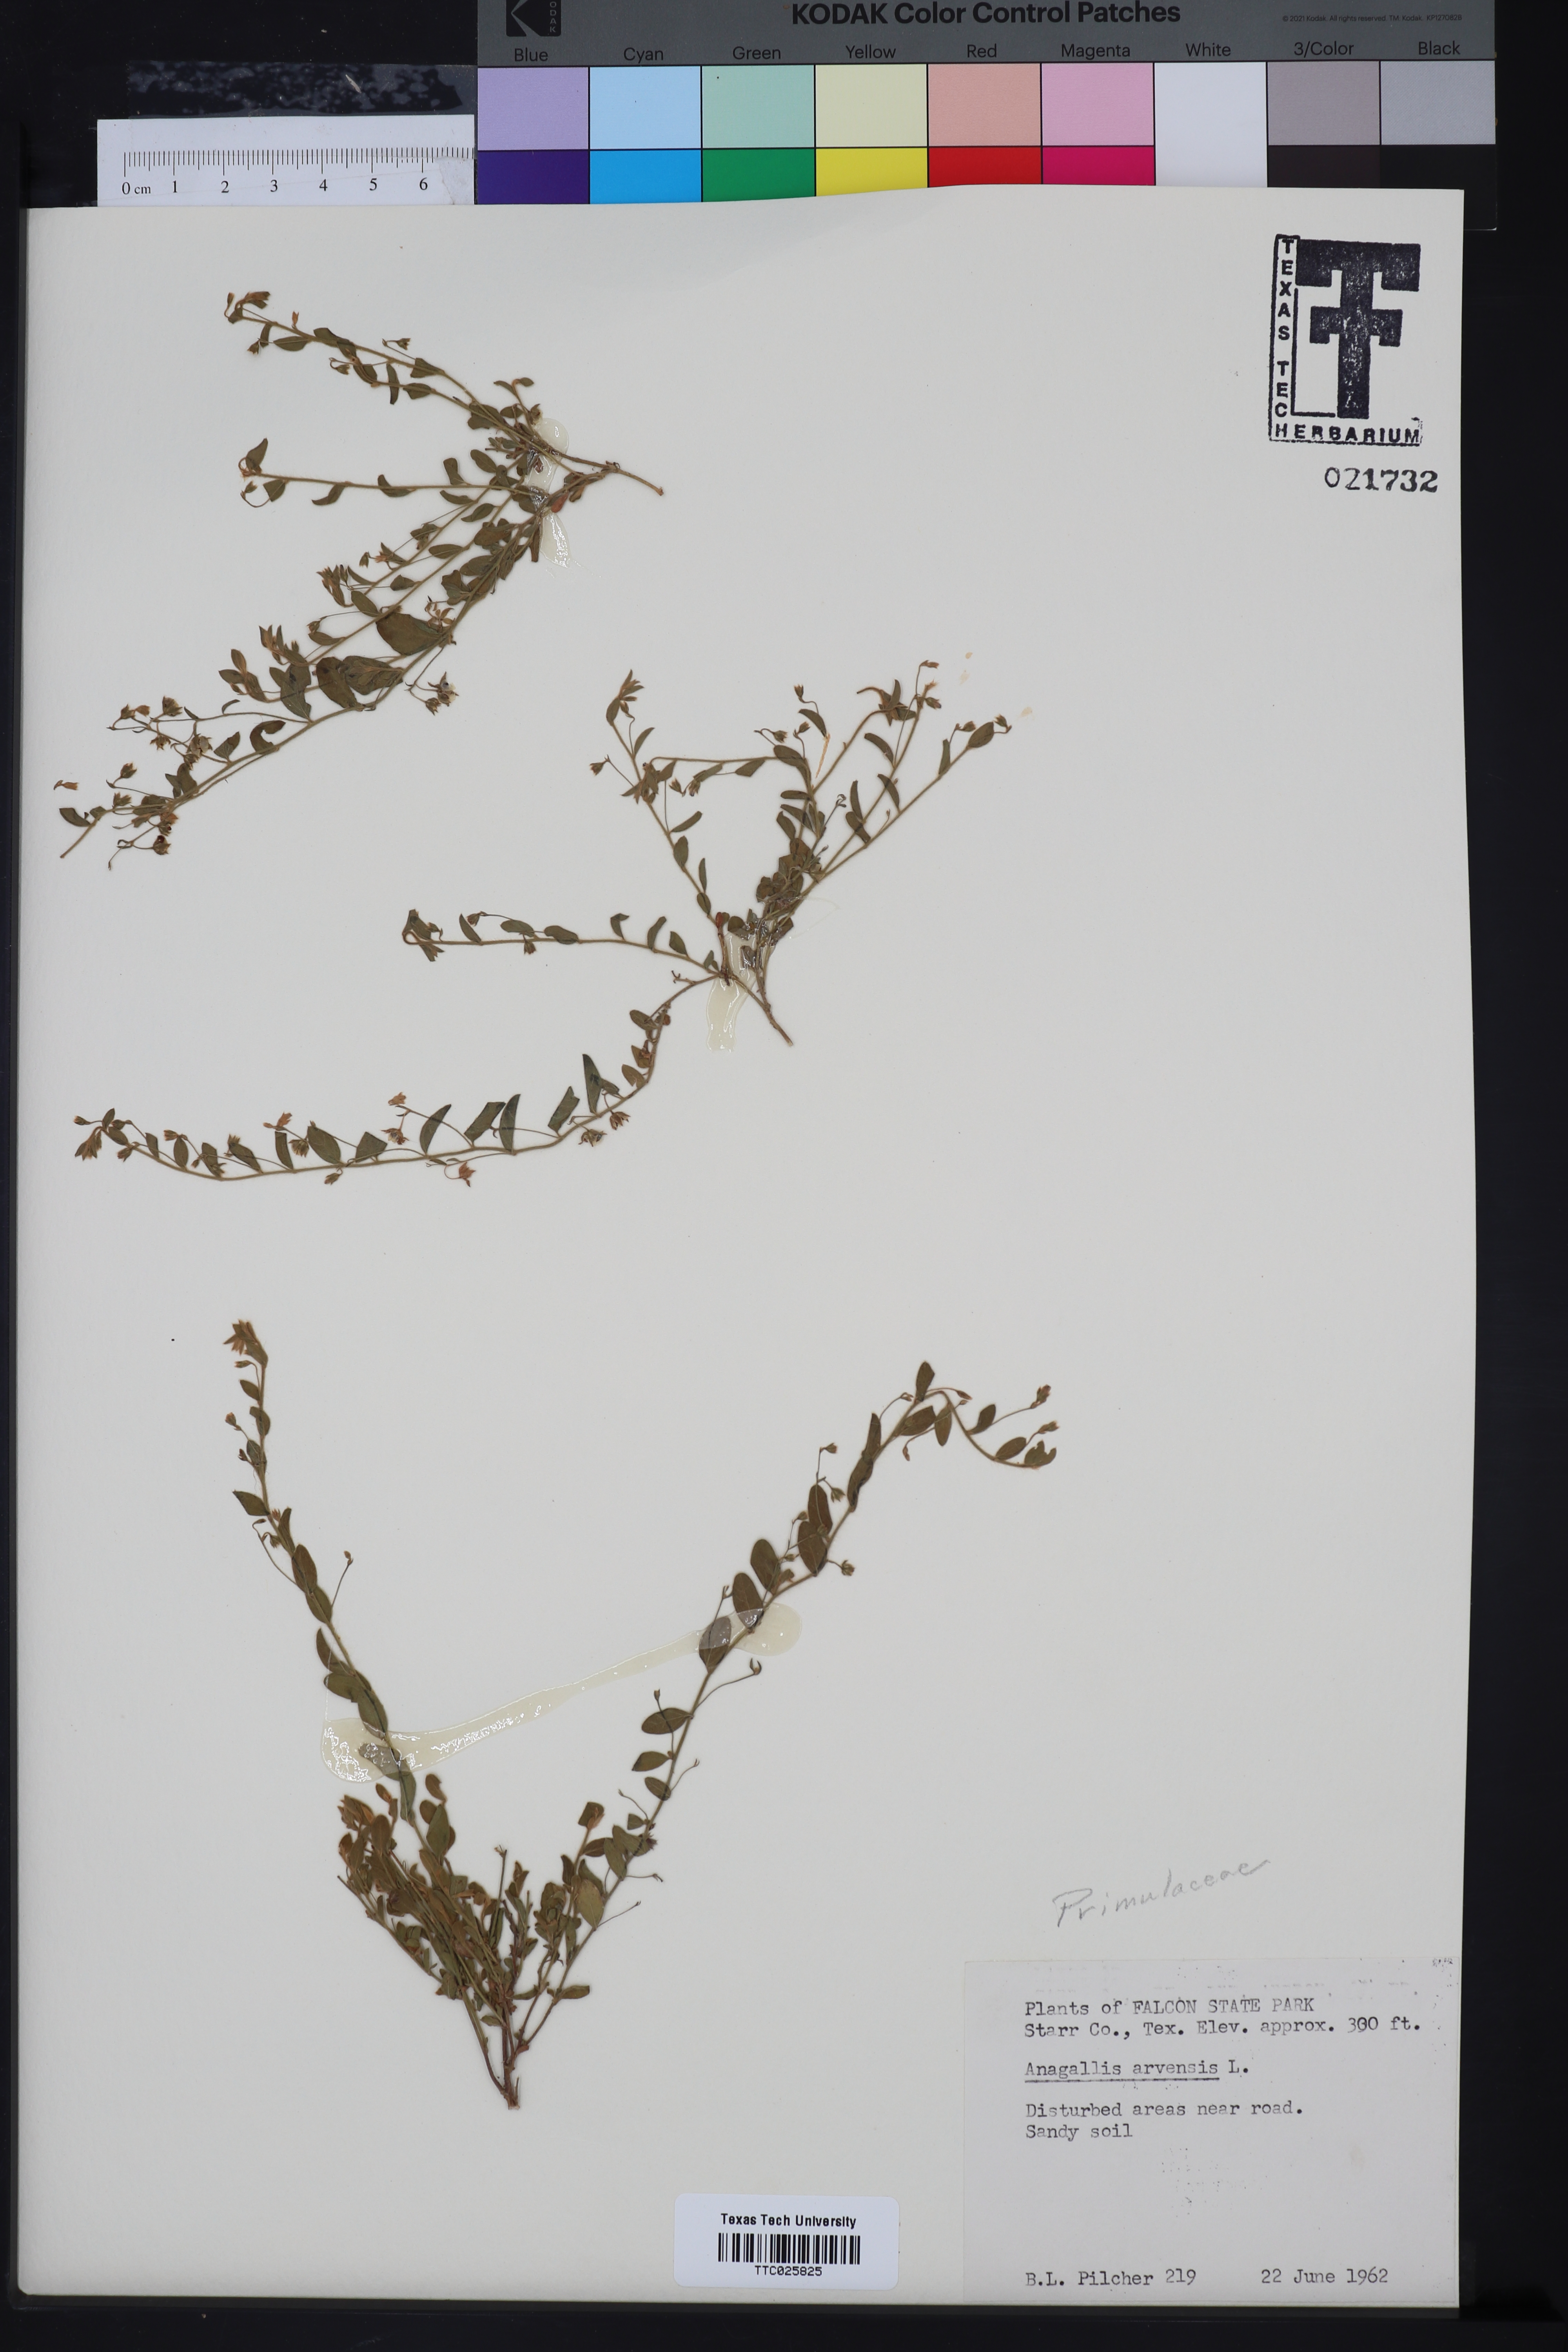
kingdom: Plantae
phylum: Tracheophyta
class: Magnoliopsida
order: Ericales
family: Primulaceae
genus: Lysimachia
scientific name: Lysimachia arvensis
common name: Scarlet pimpernel
